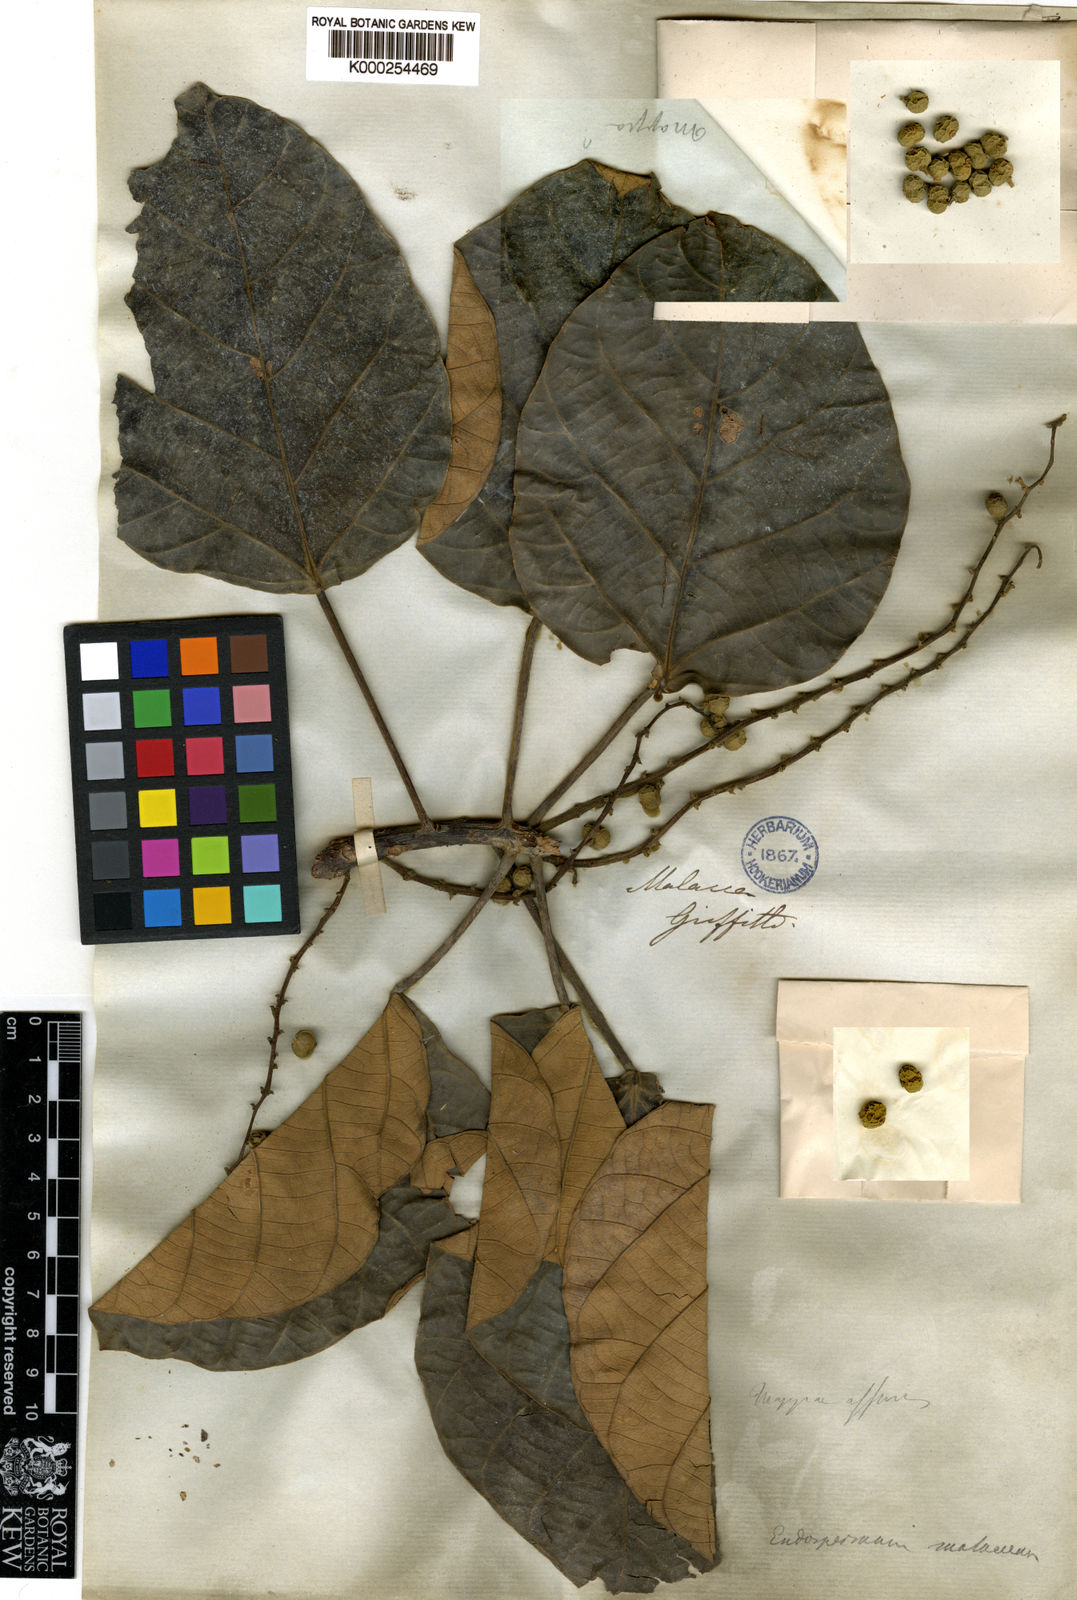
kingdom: Plantae
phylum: Tracheophyta
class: Magnoliopsida
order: Malpighiales
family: Euphorbiaceae
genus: Endospermum
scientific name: Endospermum diadenum
